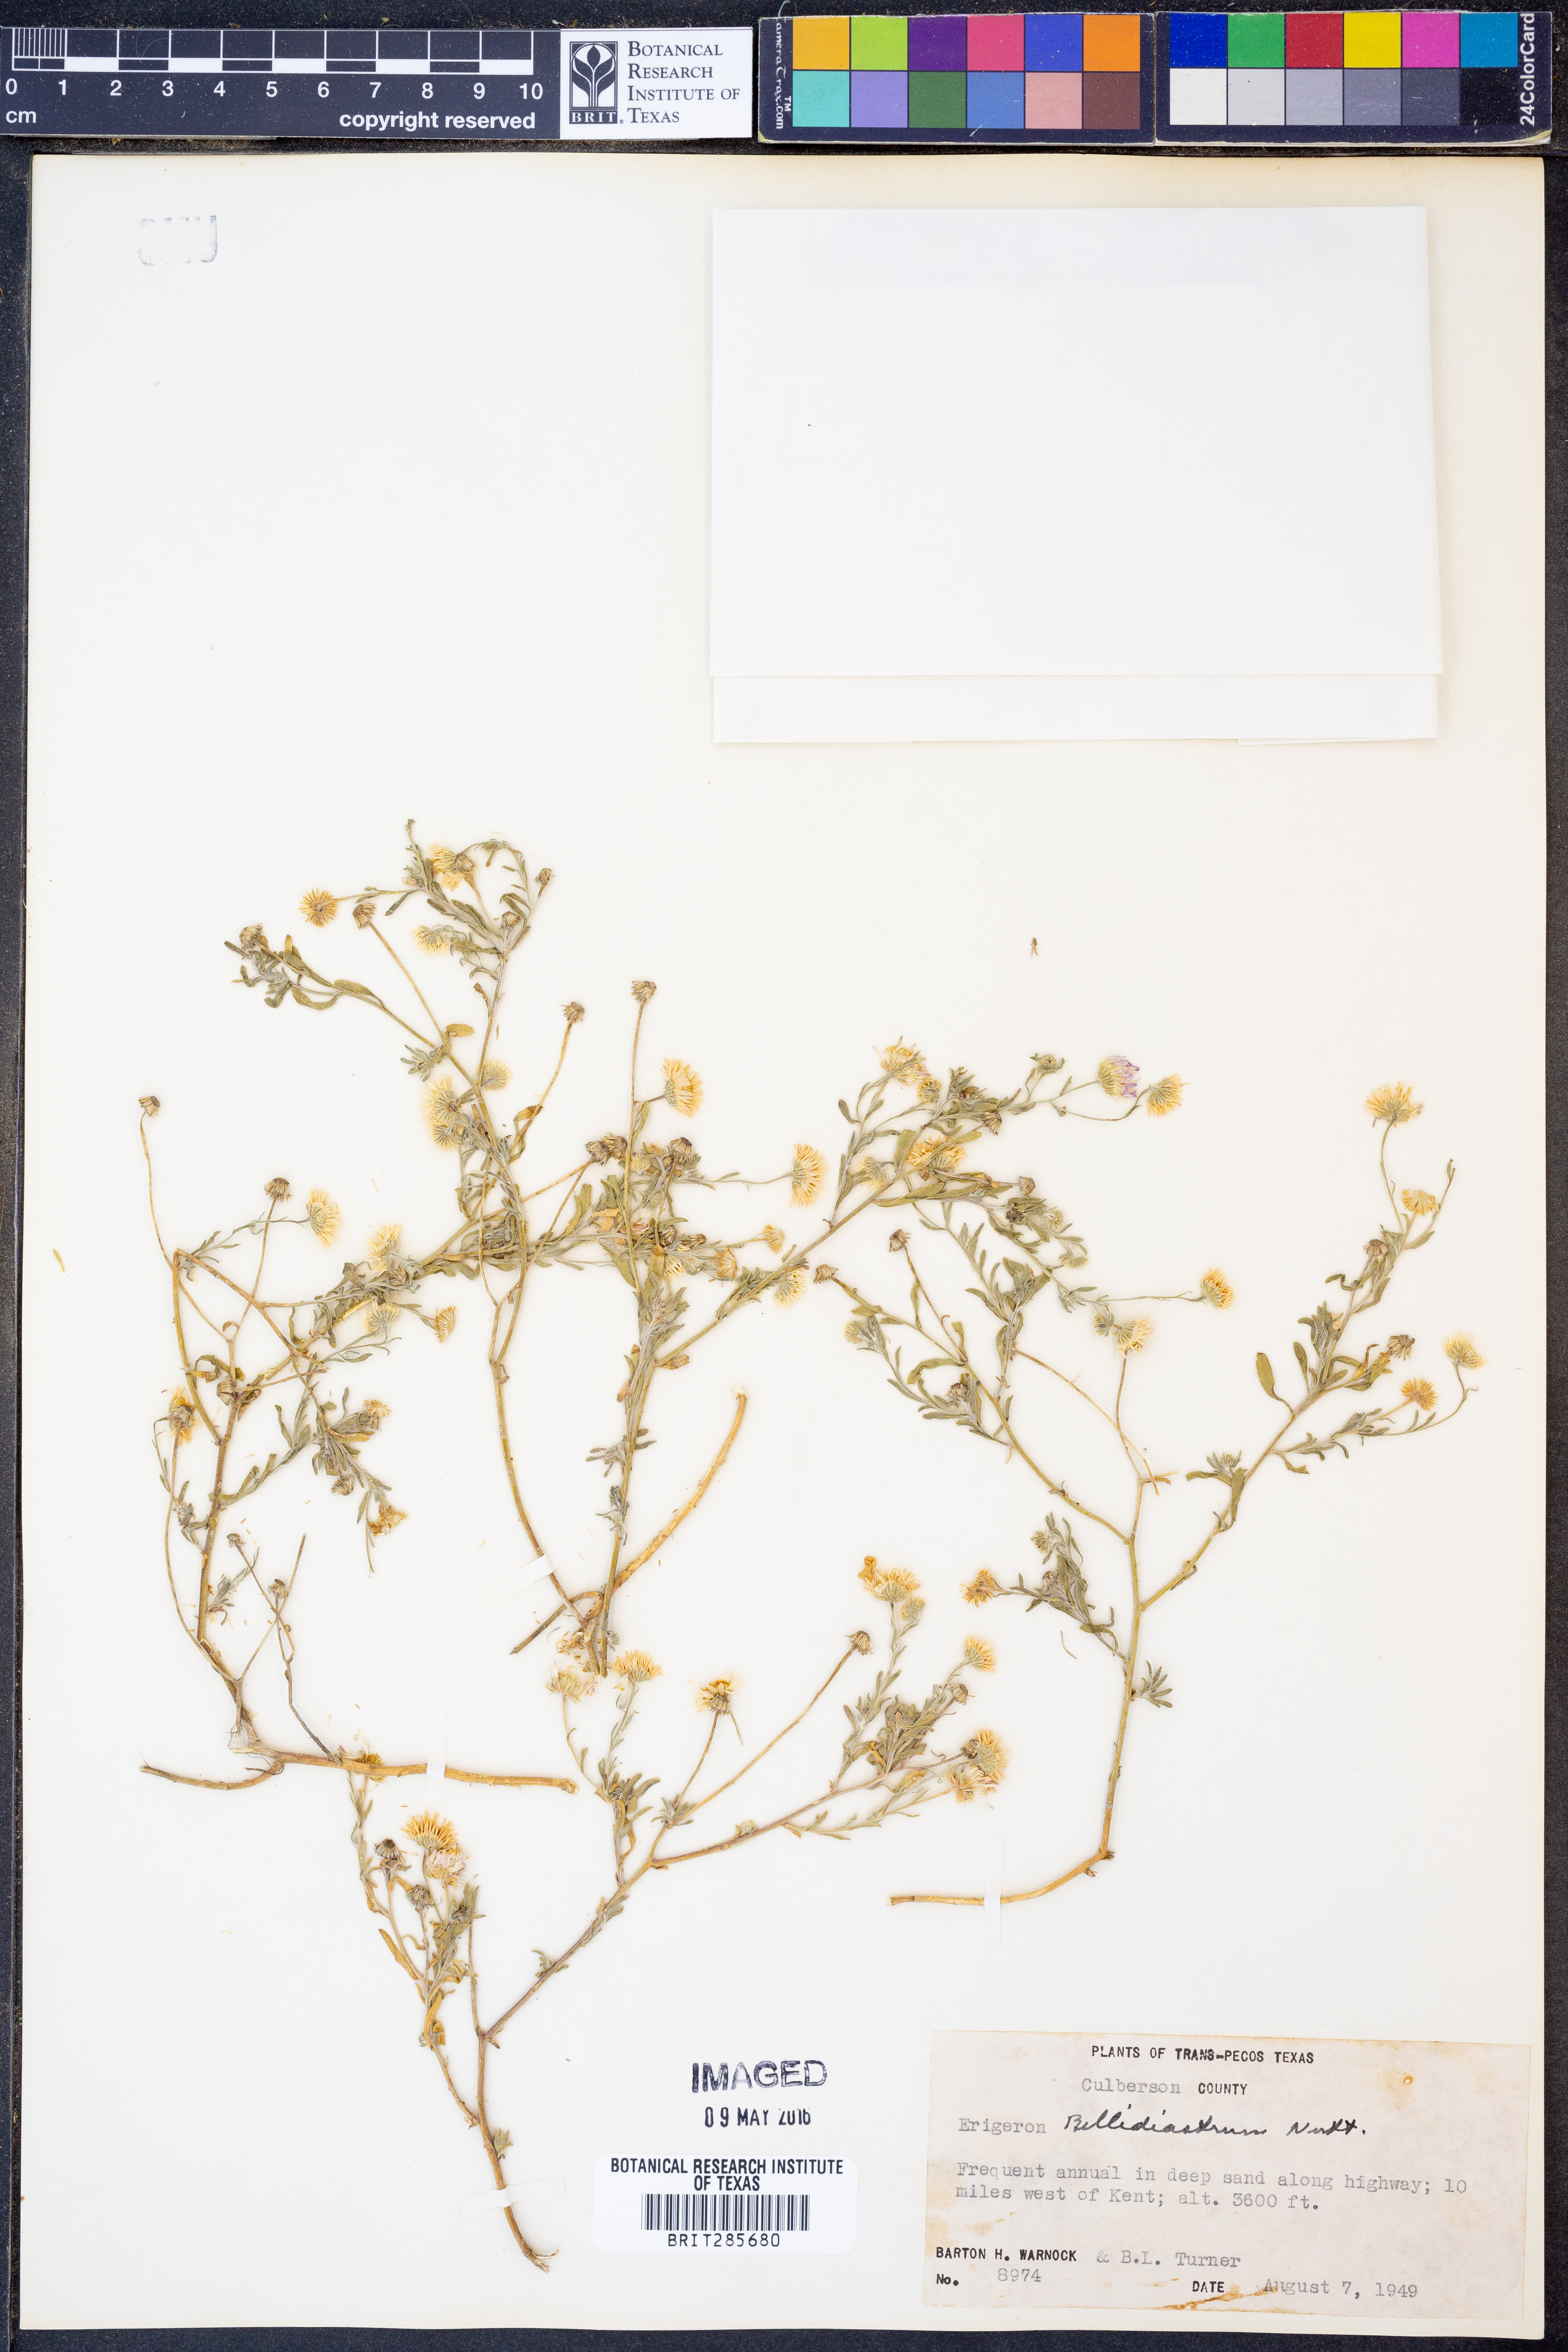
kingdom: Plantae
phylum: Tracheophyta
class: Magnoliopsida
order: Asterales
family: Asteraceae
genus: Erigeron
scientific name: Erigeron bellidiastrum
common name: Sand fleabane
